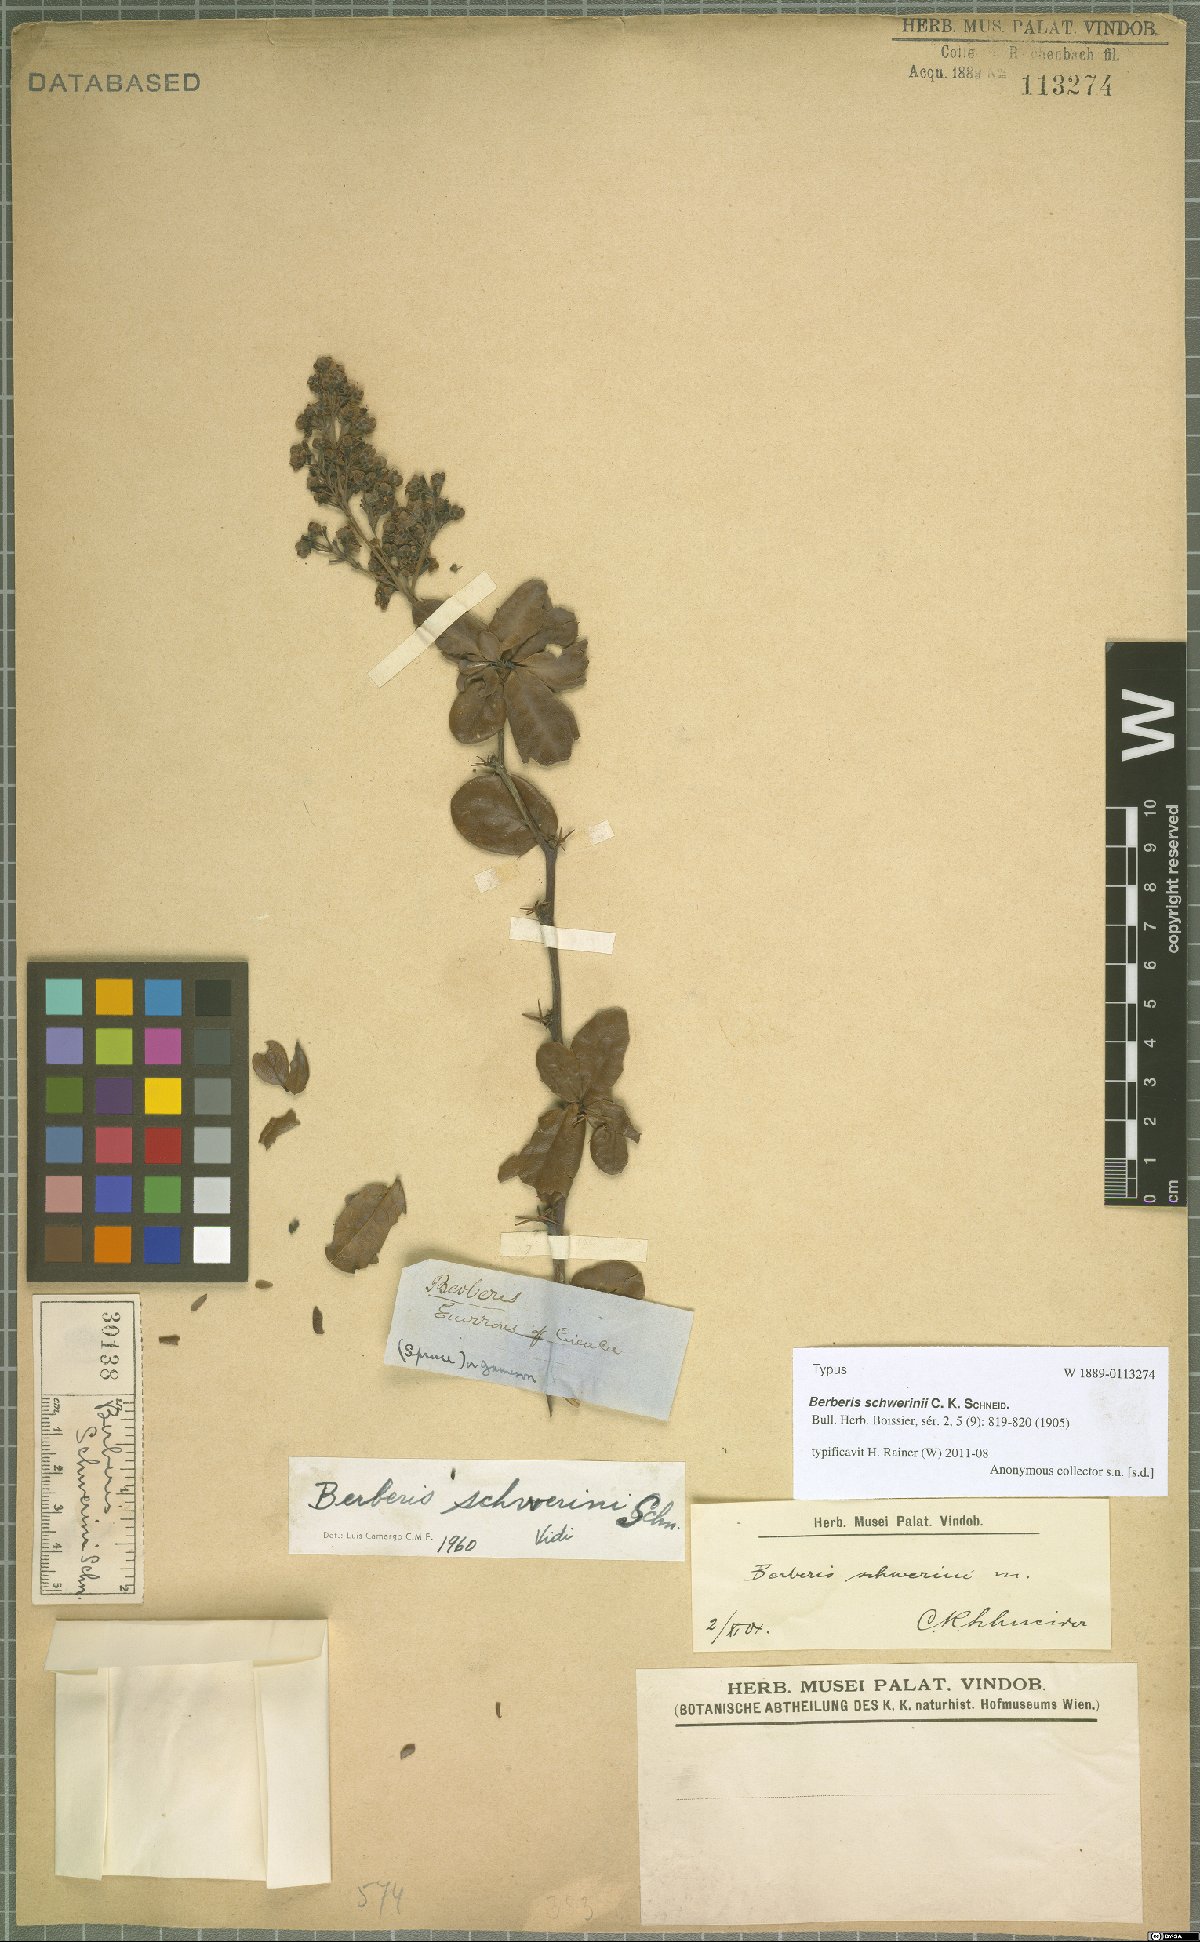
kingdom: Plantae
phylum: Tracheophyta
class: Magnoliopsida
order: Ranunculales
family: Berberidaceae
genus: Berberis
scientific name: Berberis schwerinii
